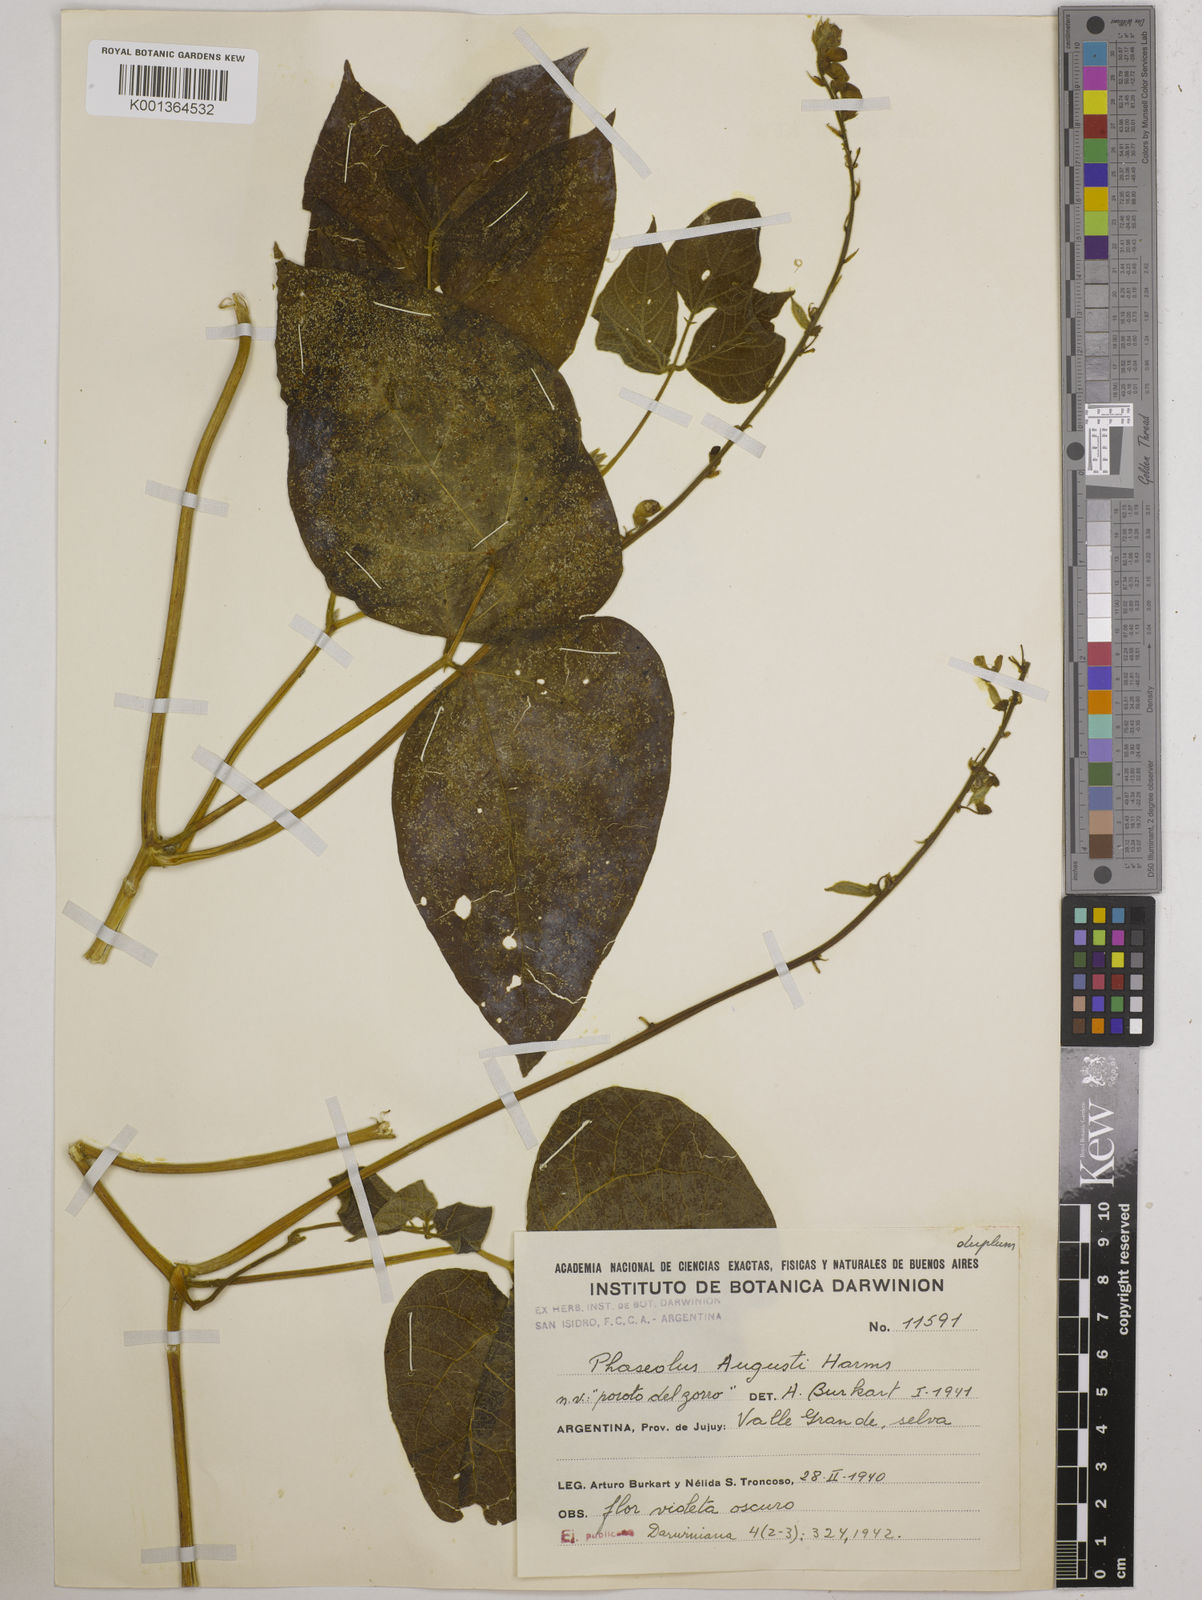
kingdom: Plantae
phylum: Tracheophyta
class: Magnoliopsida
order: Fabales
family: Fabaceae
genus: Phaseolus
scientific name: Phaseolus augusti
